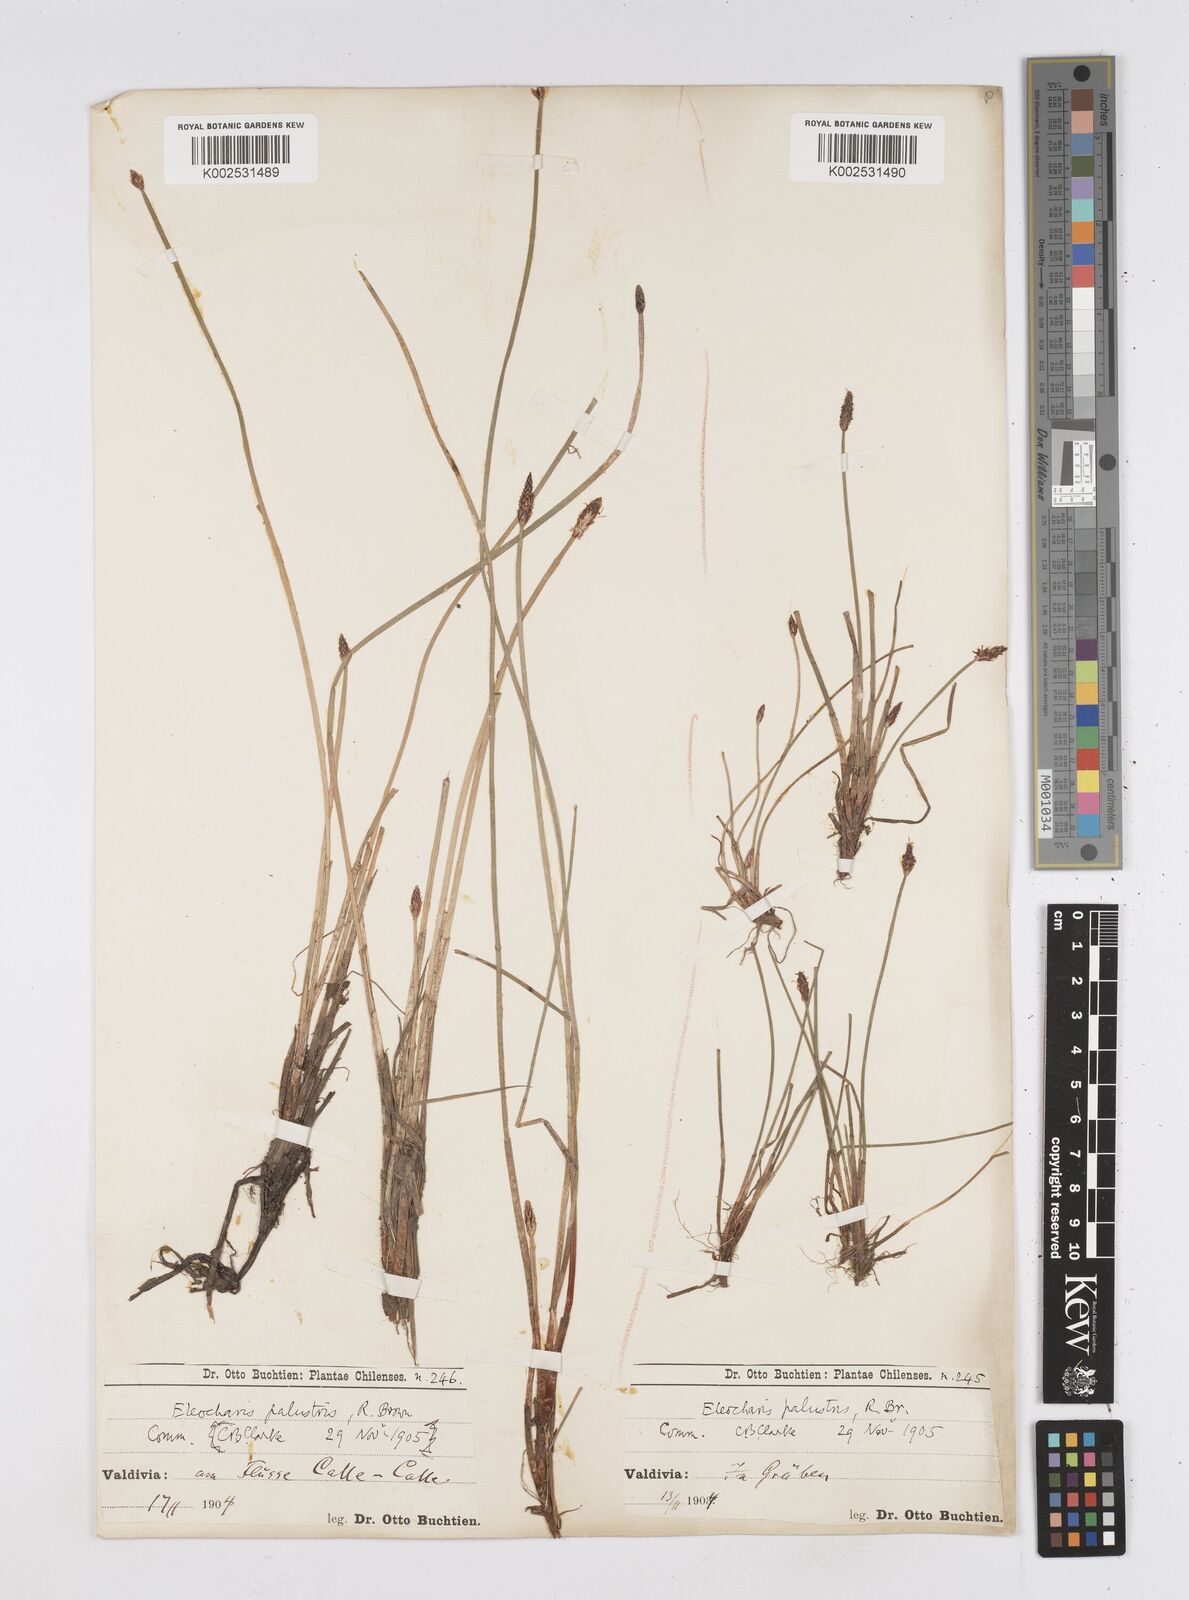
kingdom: Plantae
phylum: Tracheophyta
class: Liliopsida
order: Poales
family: Cyperaceae
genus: Eleocharis
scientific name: Eleocharis palustris
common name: Common spike-rush
